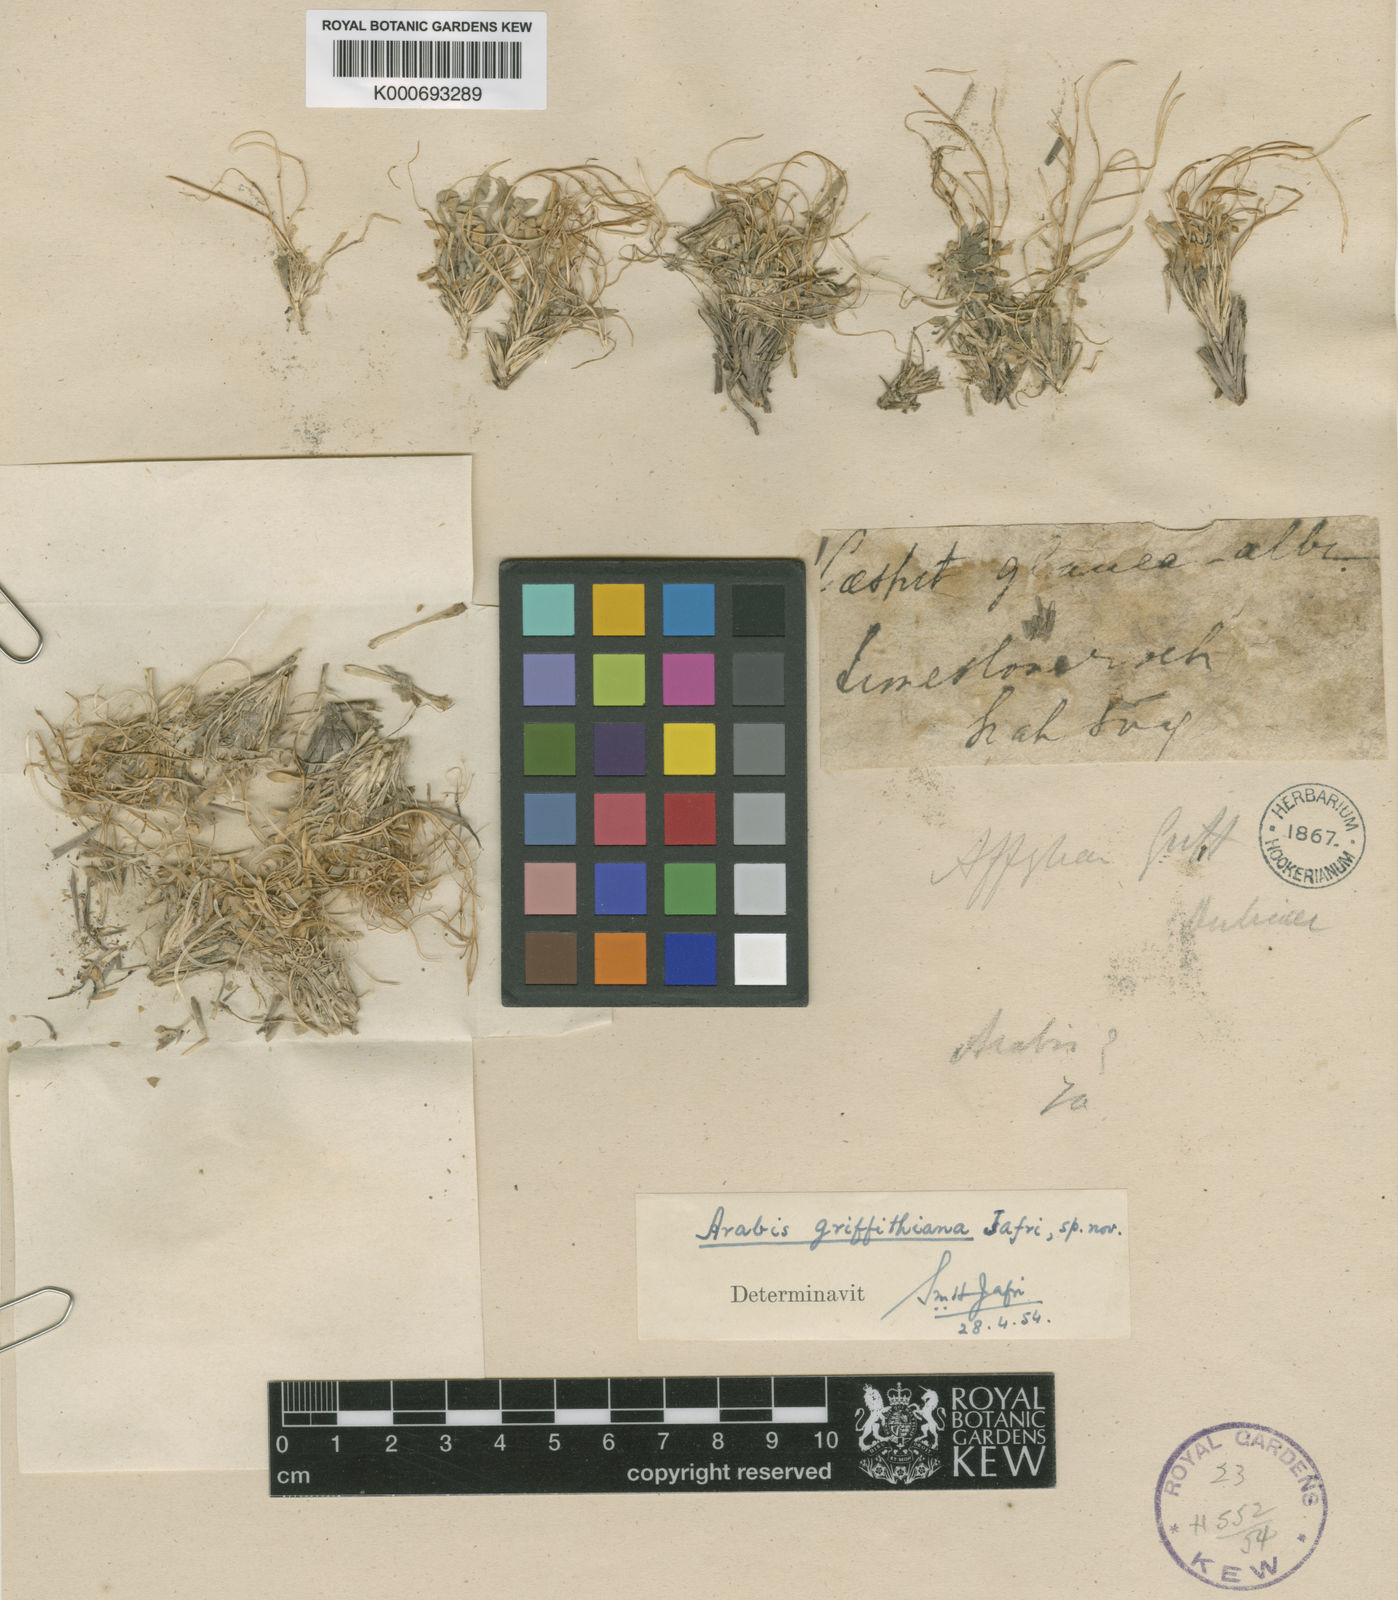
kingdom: Plantae
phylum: Tracheophyta
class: Magnoliopsida
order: Brassicales
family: Brassicaceae
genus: Crucihimalaya
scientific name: Crucihimalaya tenuisiliqua
